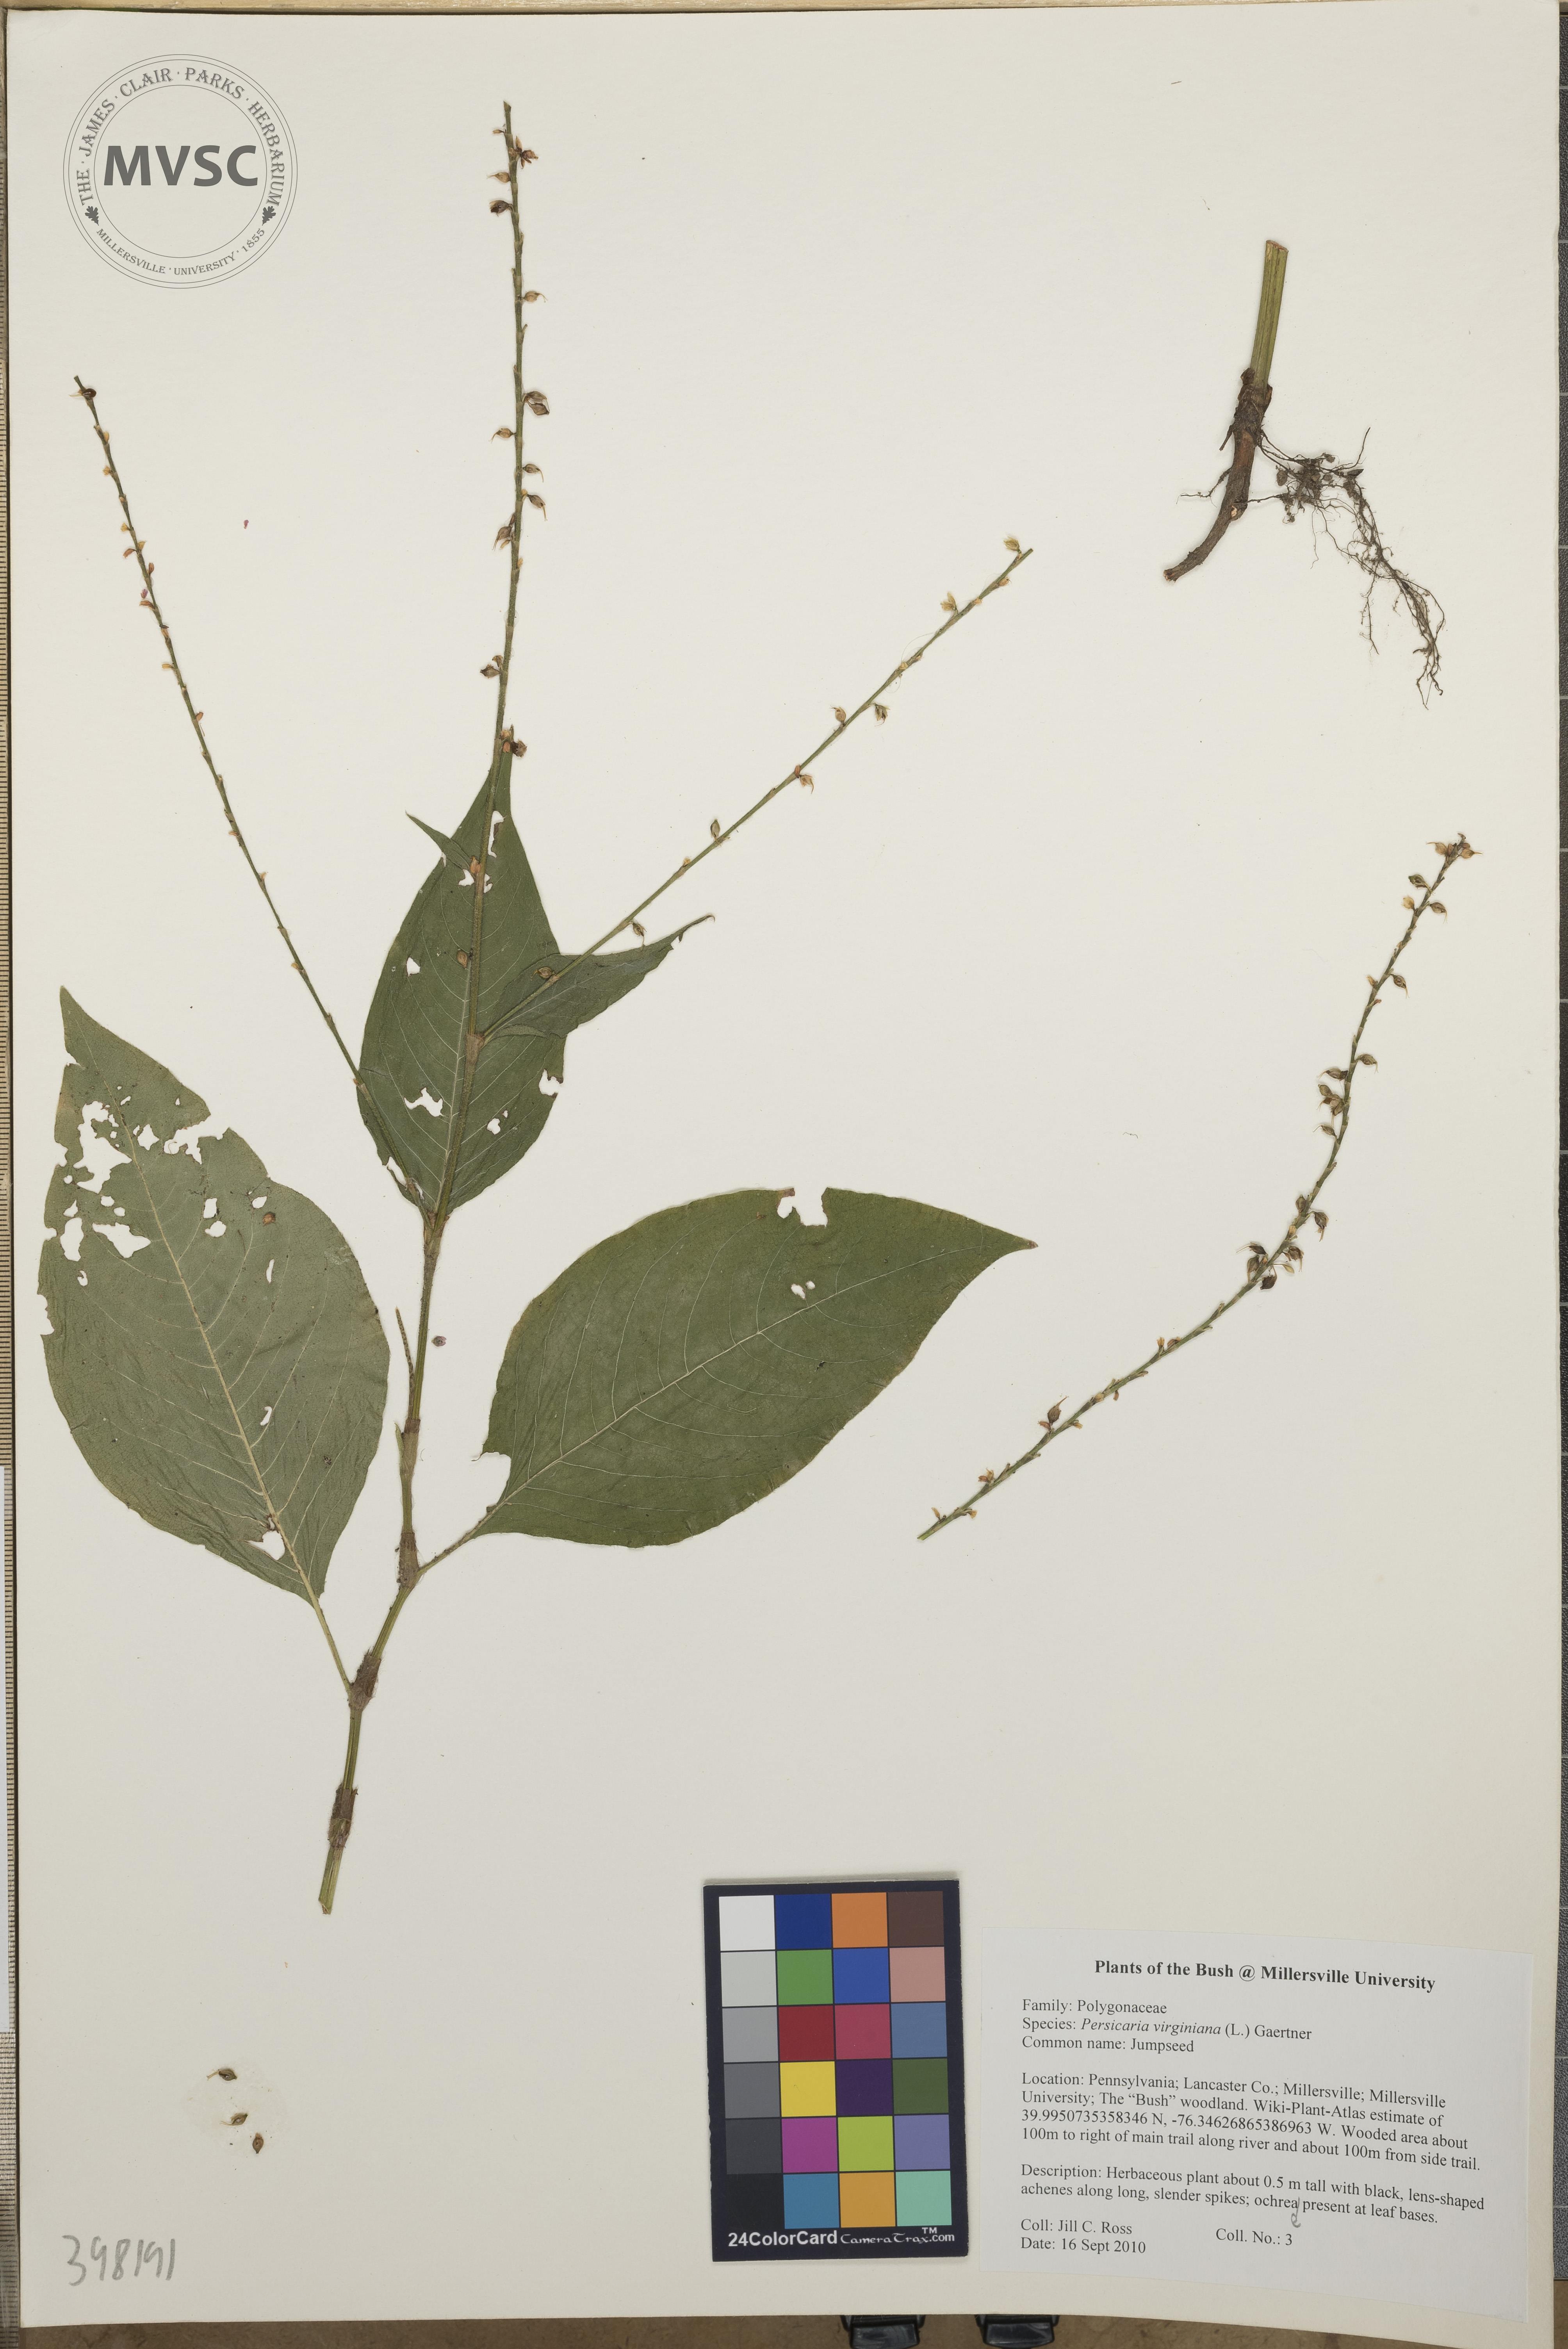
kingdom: Plantae
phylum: Tracheophyta
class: Magnoliopsida
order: Caryophyllales
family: Polygonaceae
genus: Persicaria
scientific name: Persicaria virginiana
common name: Jumpseed
